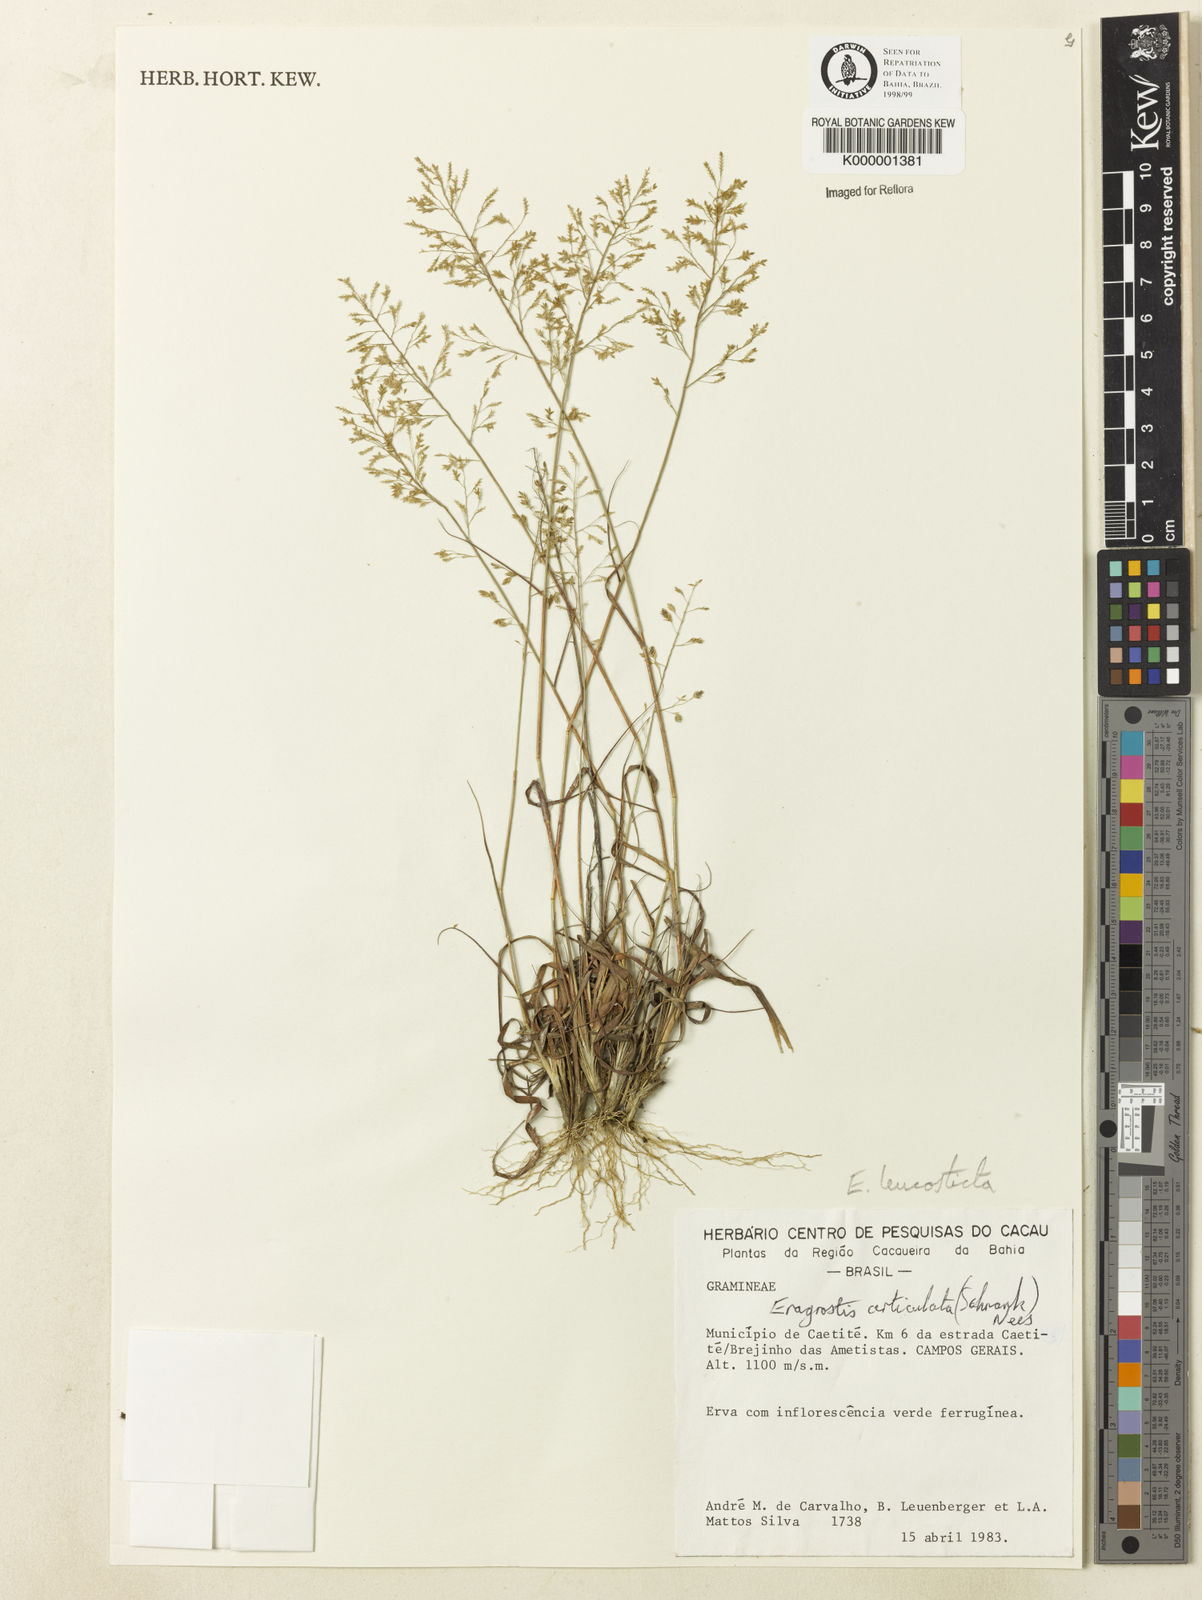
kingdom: Plantae
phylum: Tracheophyta
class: Liliopsida
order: Poales
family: Poaceae
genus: Eragrostis
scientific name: Eragrostis
